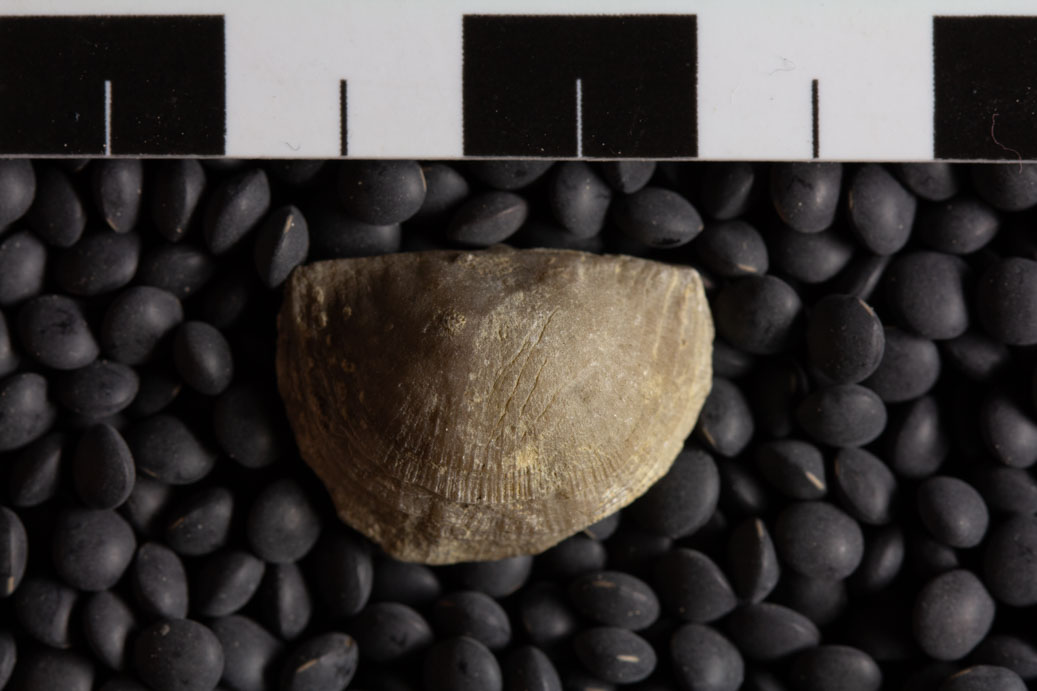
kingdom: Animalia
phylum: Brachiopoda
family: Strophomenidae
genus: Nasutimena
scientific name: Nasutimena Strophomena fluctuosa
